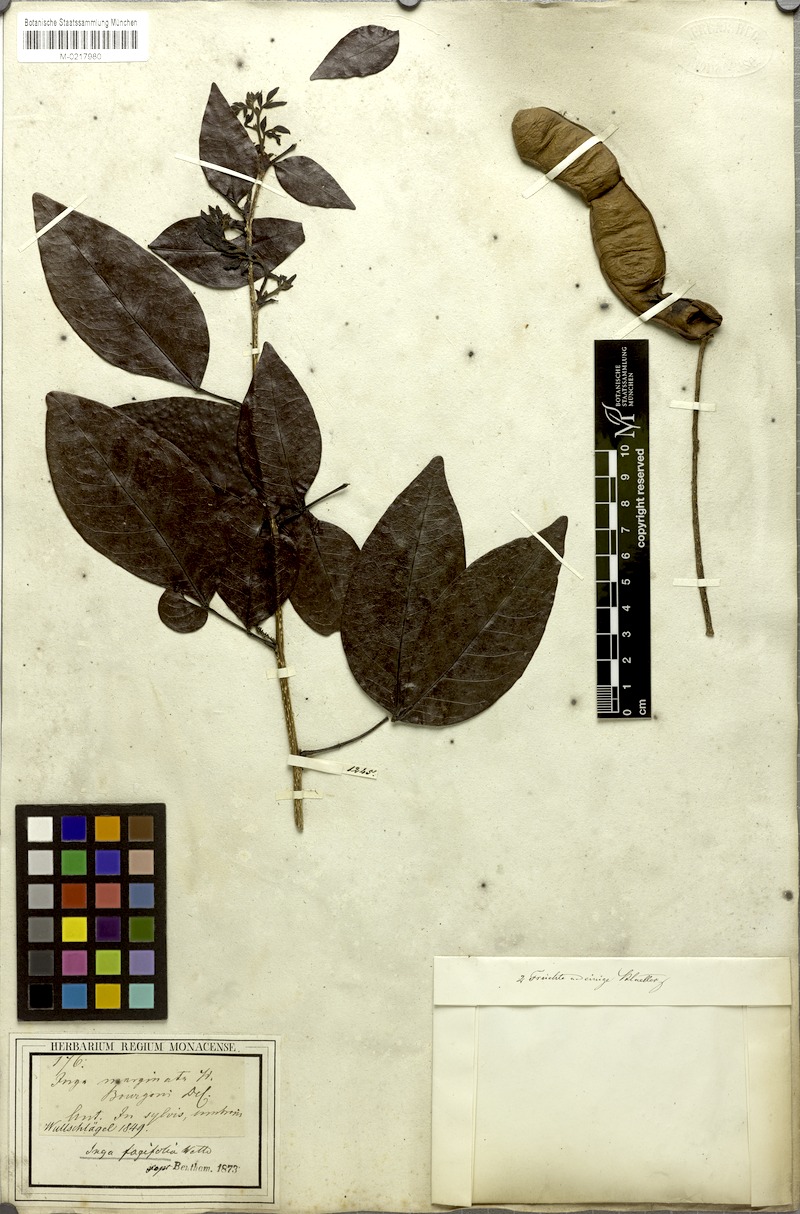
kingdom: Plantae
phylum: Tracheophyta
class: Magnoliopsida
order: Fabales
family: Fabaceae
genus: Inga
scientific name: Inga laurina
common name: Red wood
